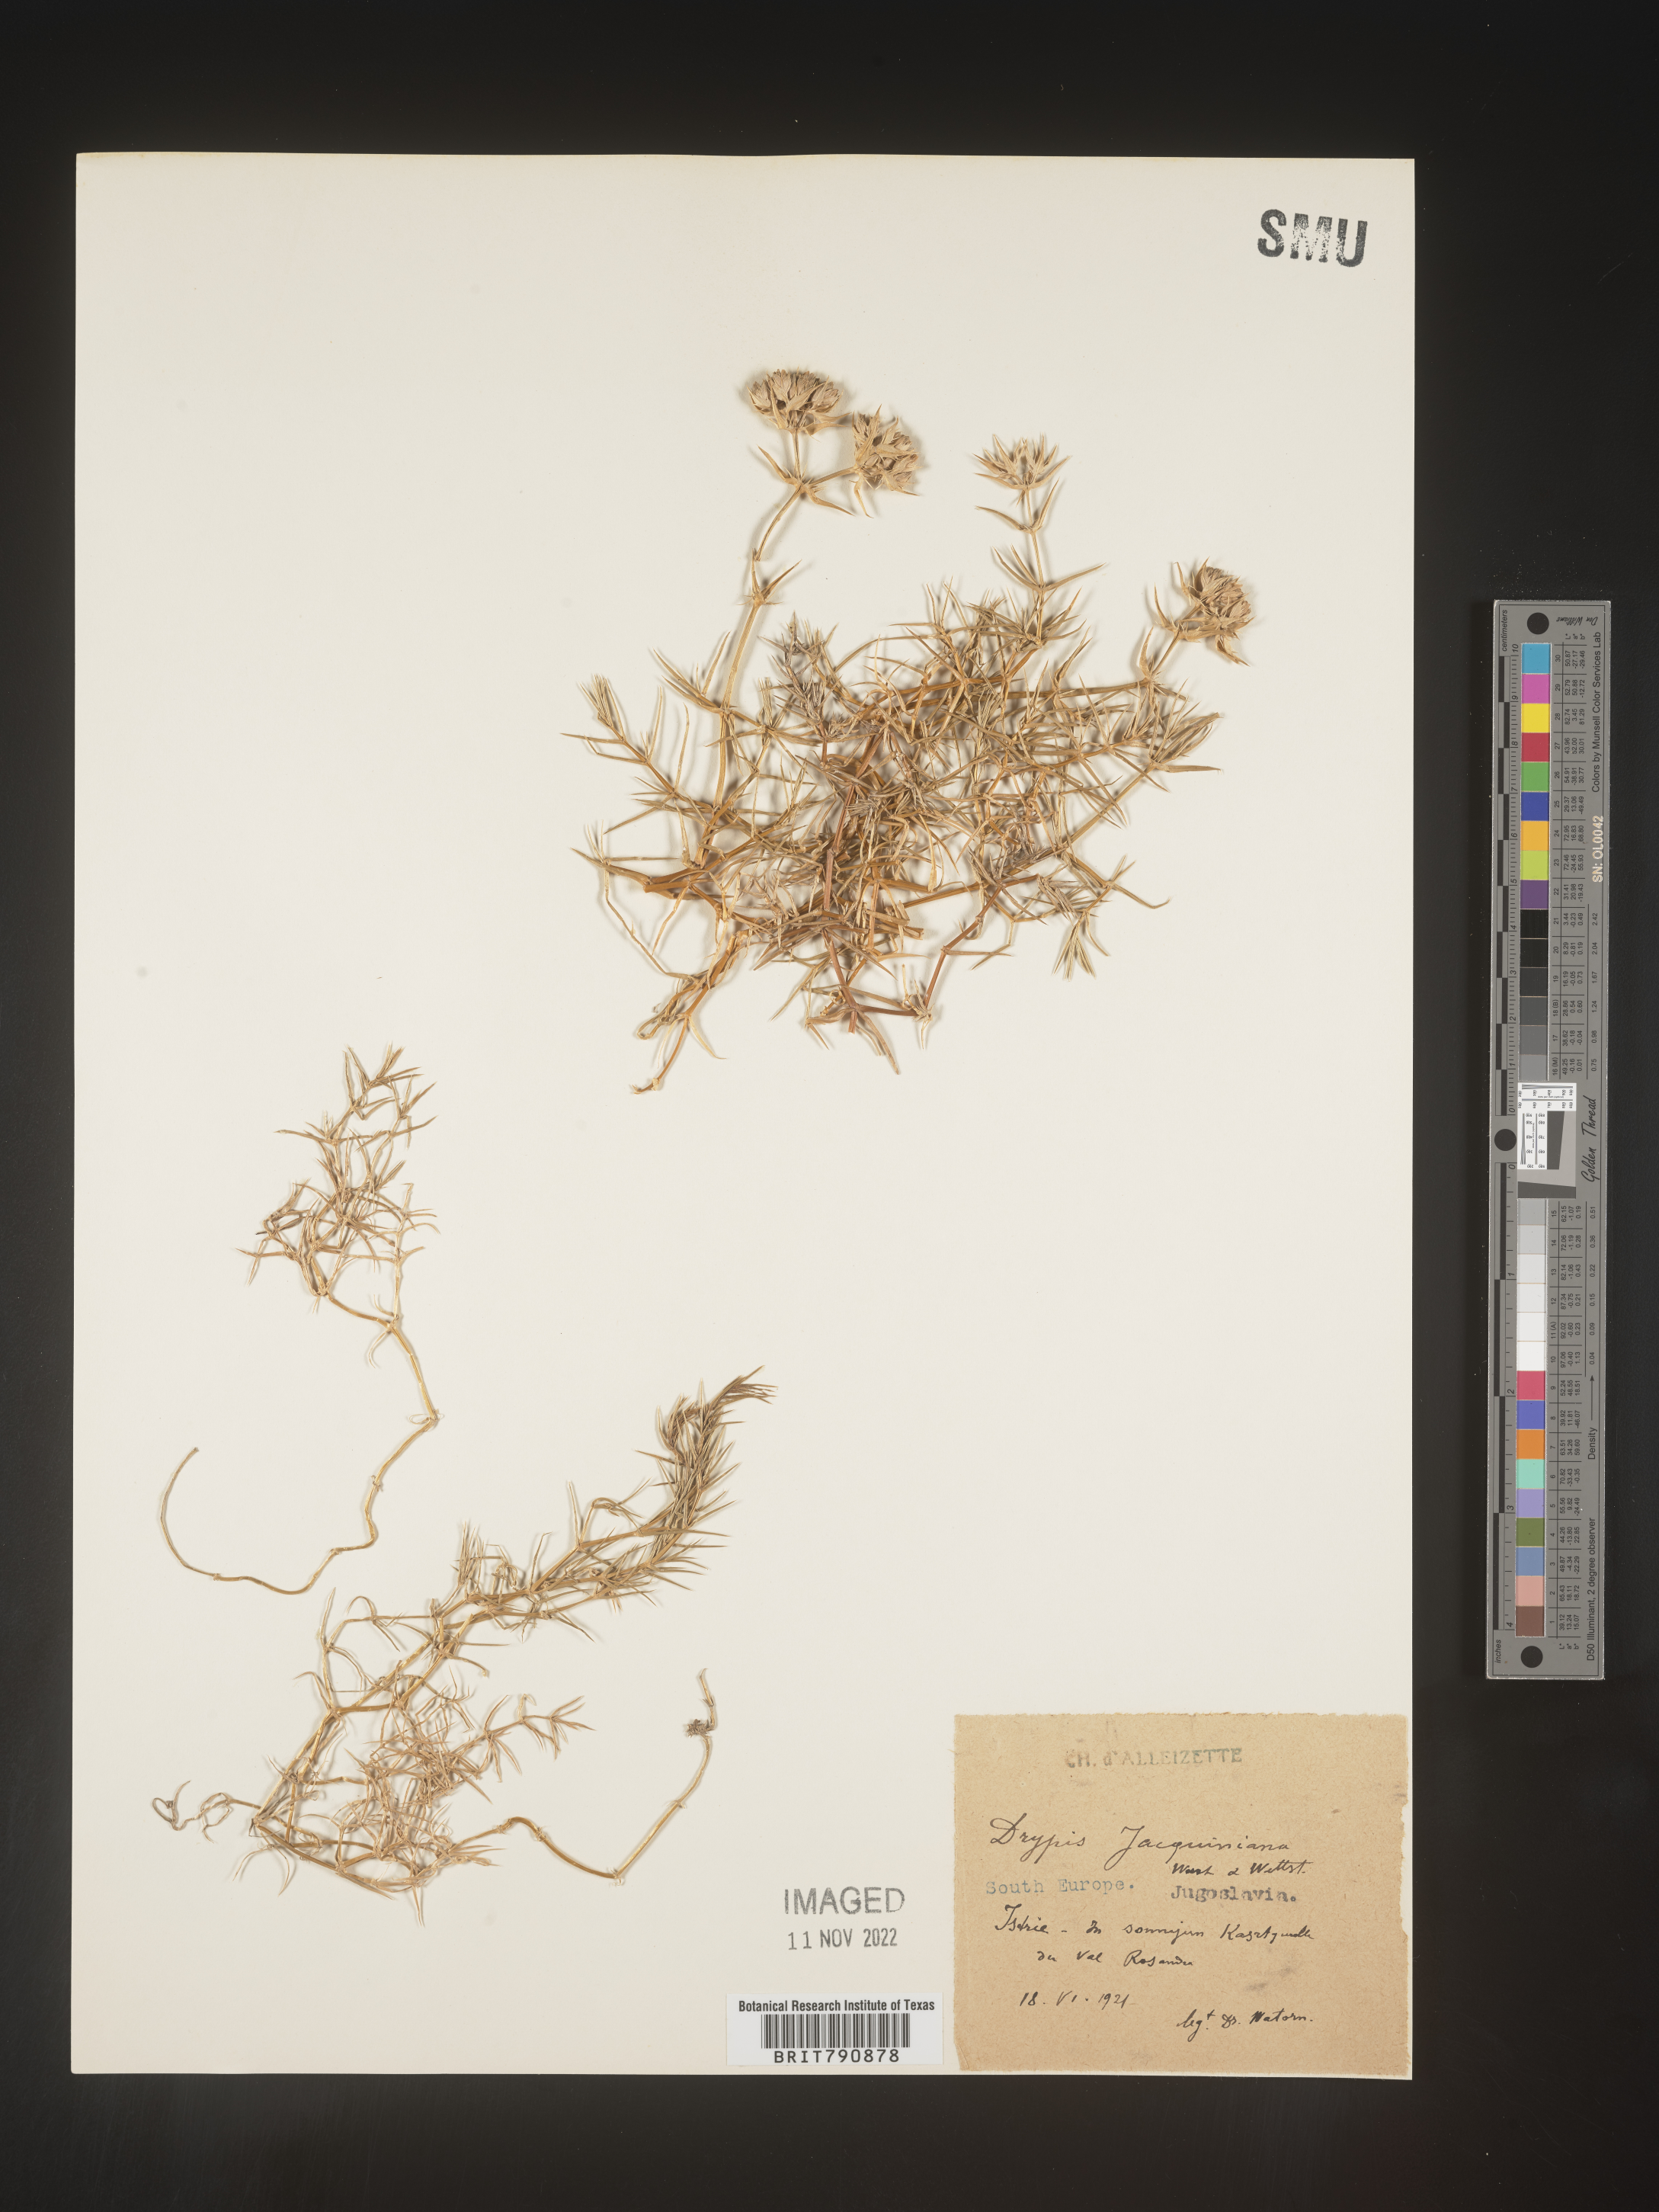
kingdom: Plantae
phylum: Tracheophyta
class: Magnoliopsida
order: Caryophyllales
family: Caryophyllaceae
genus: Drypis
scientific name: Drypis
